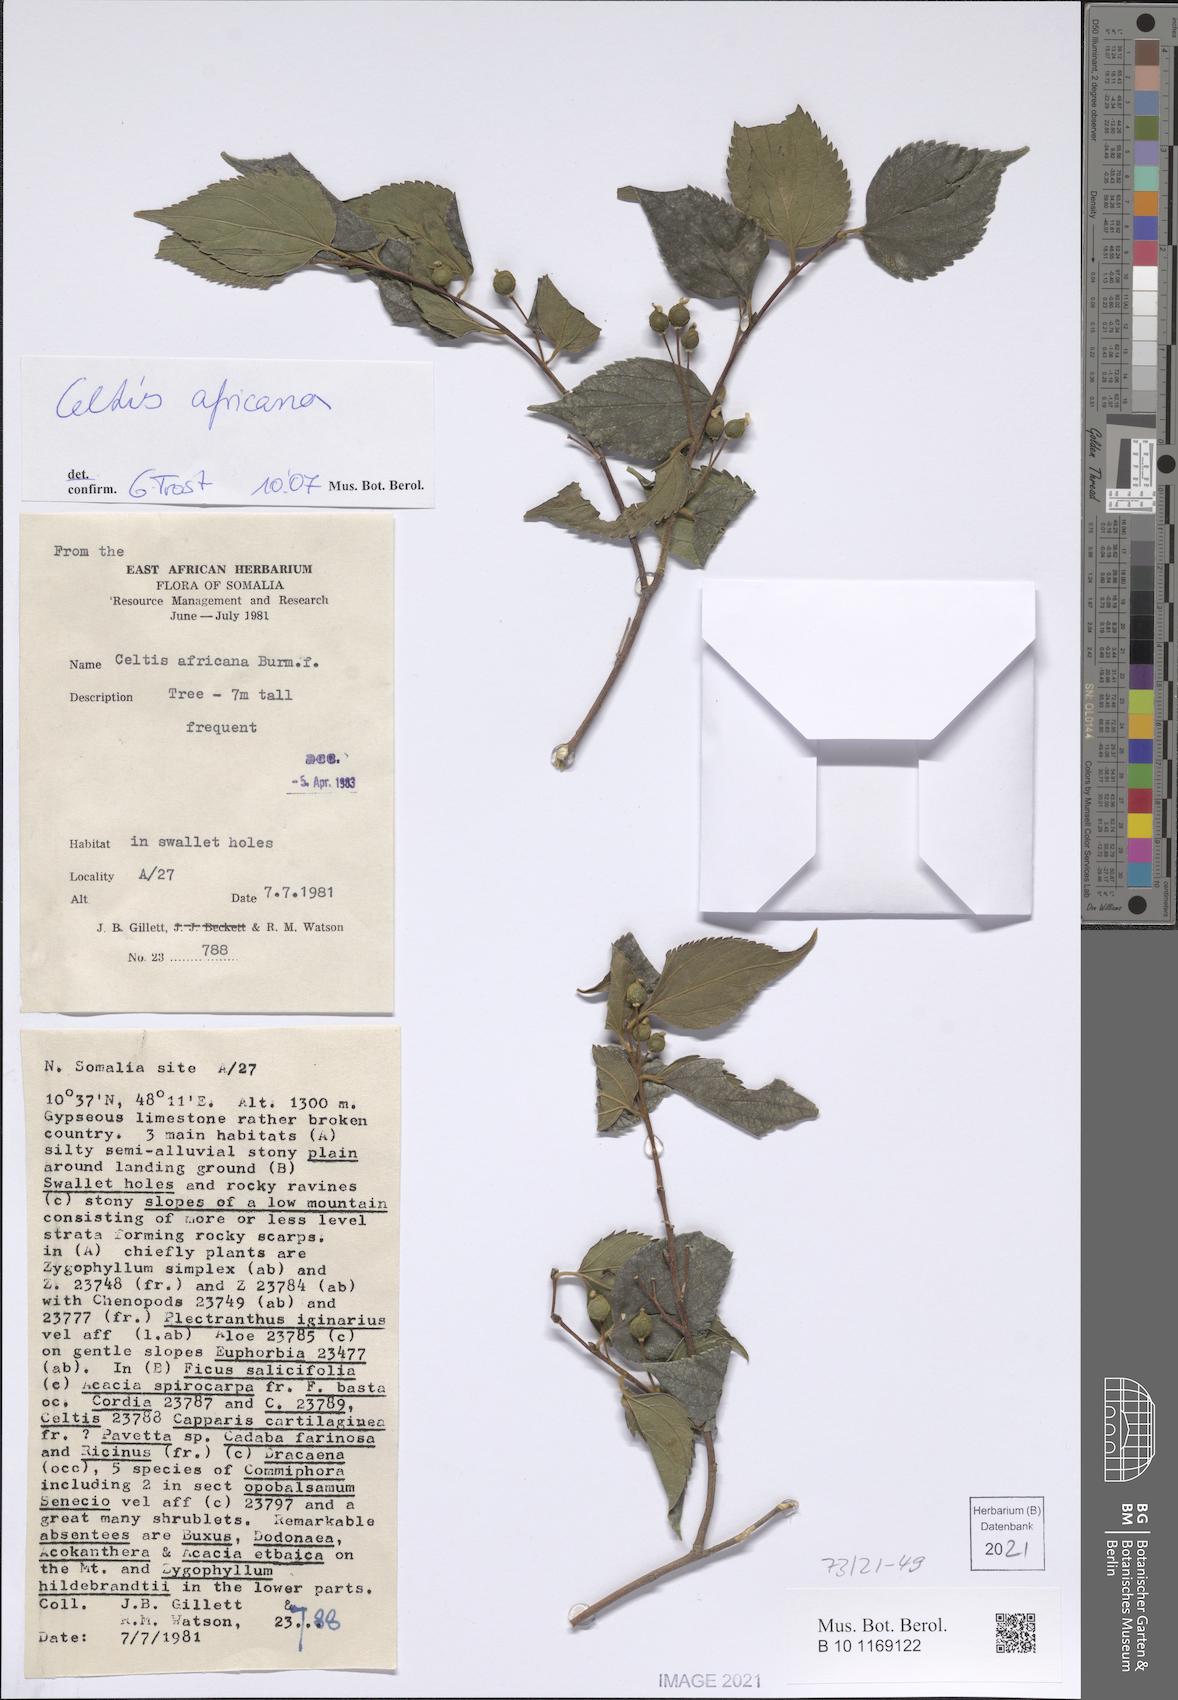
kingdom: Plantae
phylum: Tracheophyta
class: Magnoliopsida
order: Rosales
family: Cannabaceae
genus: Celtis
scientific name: Celtis
